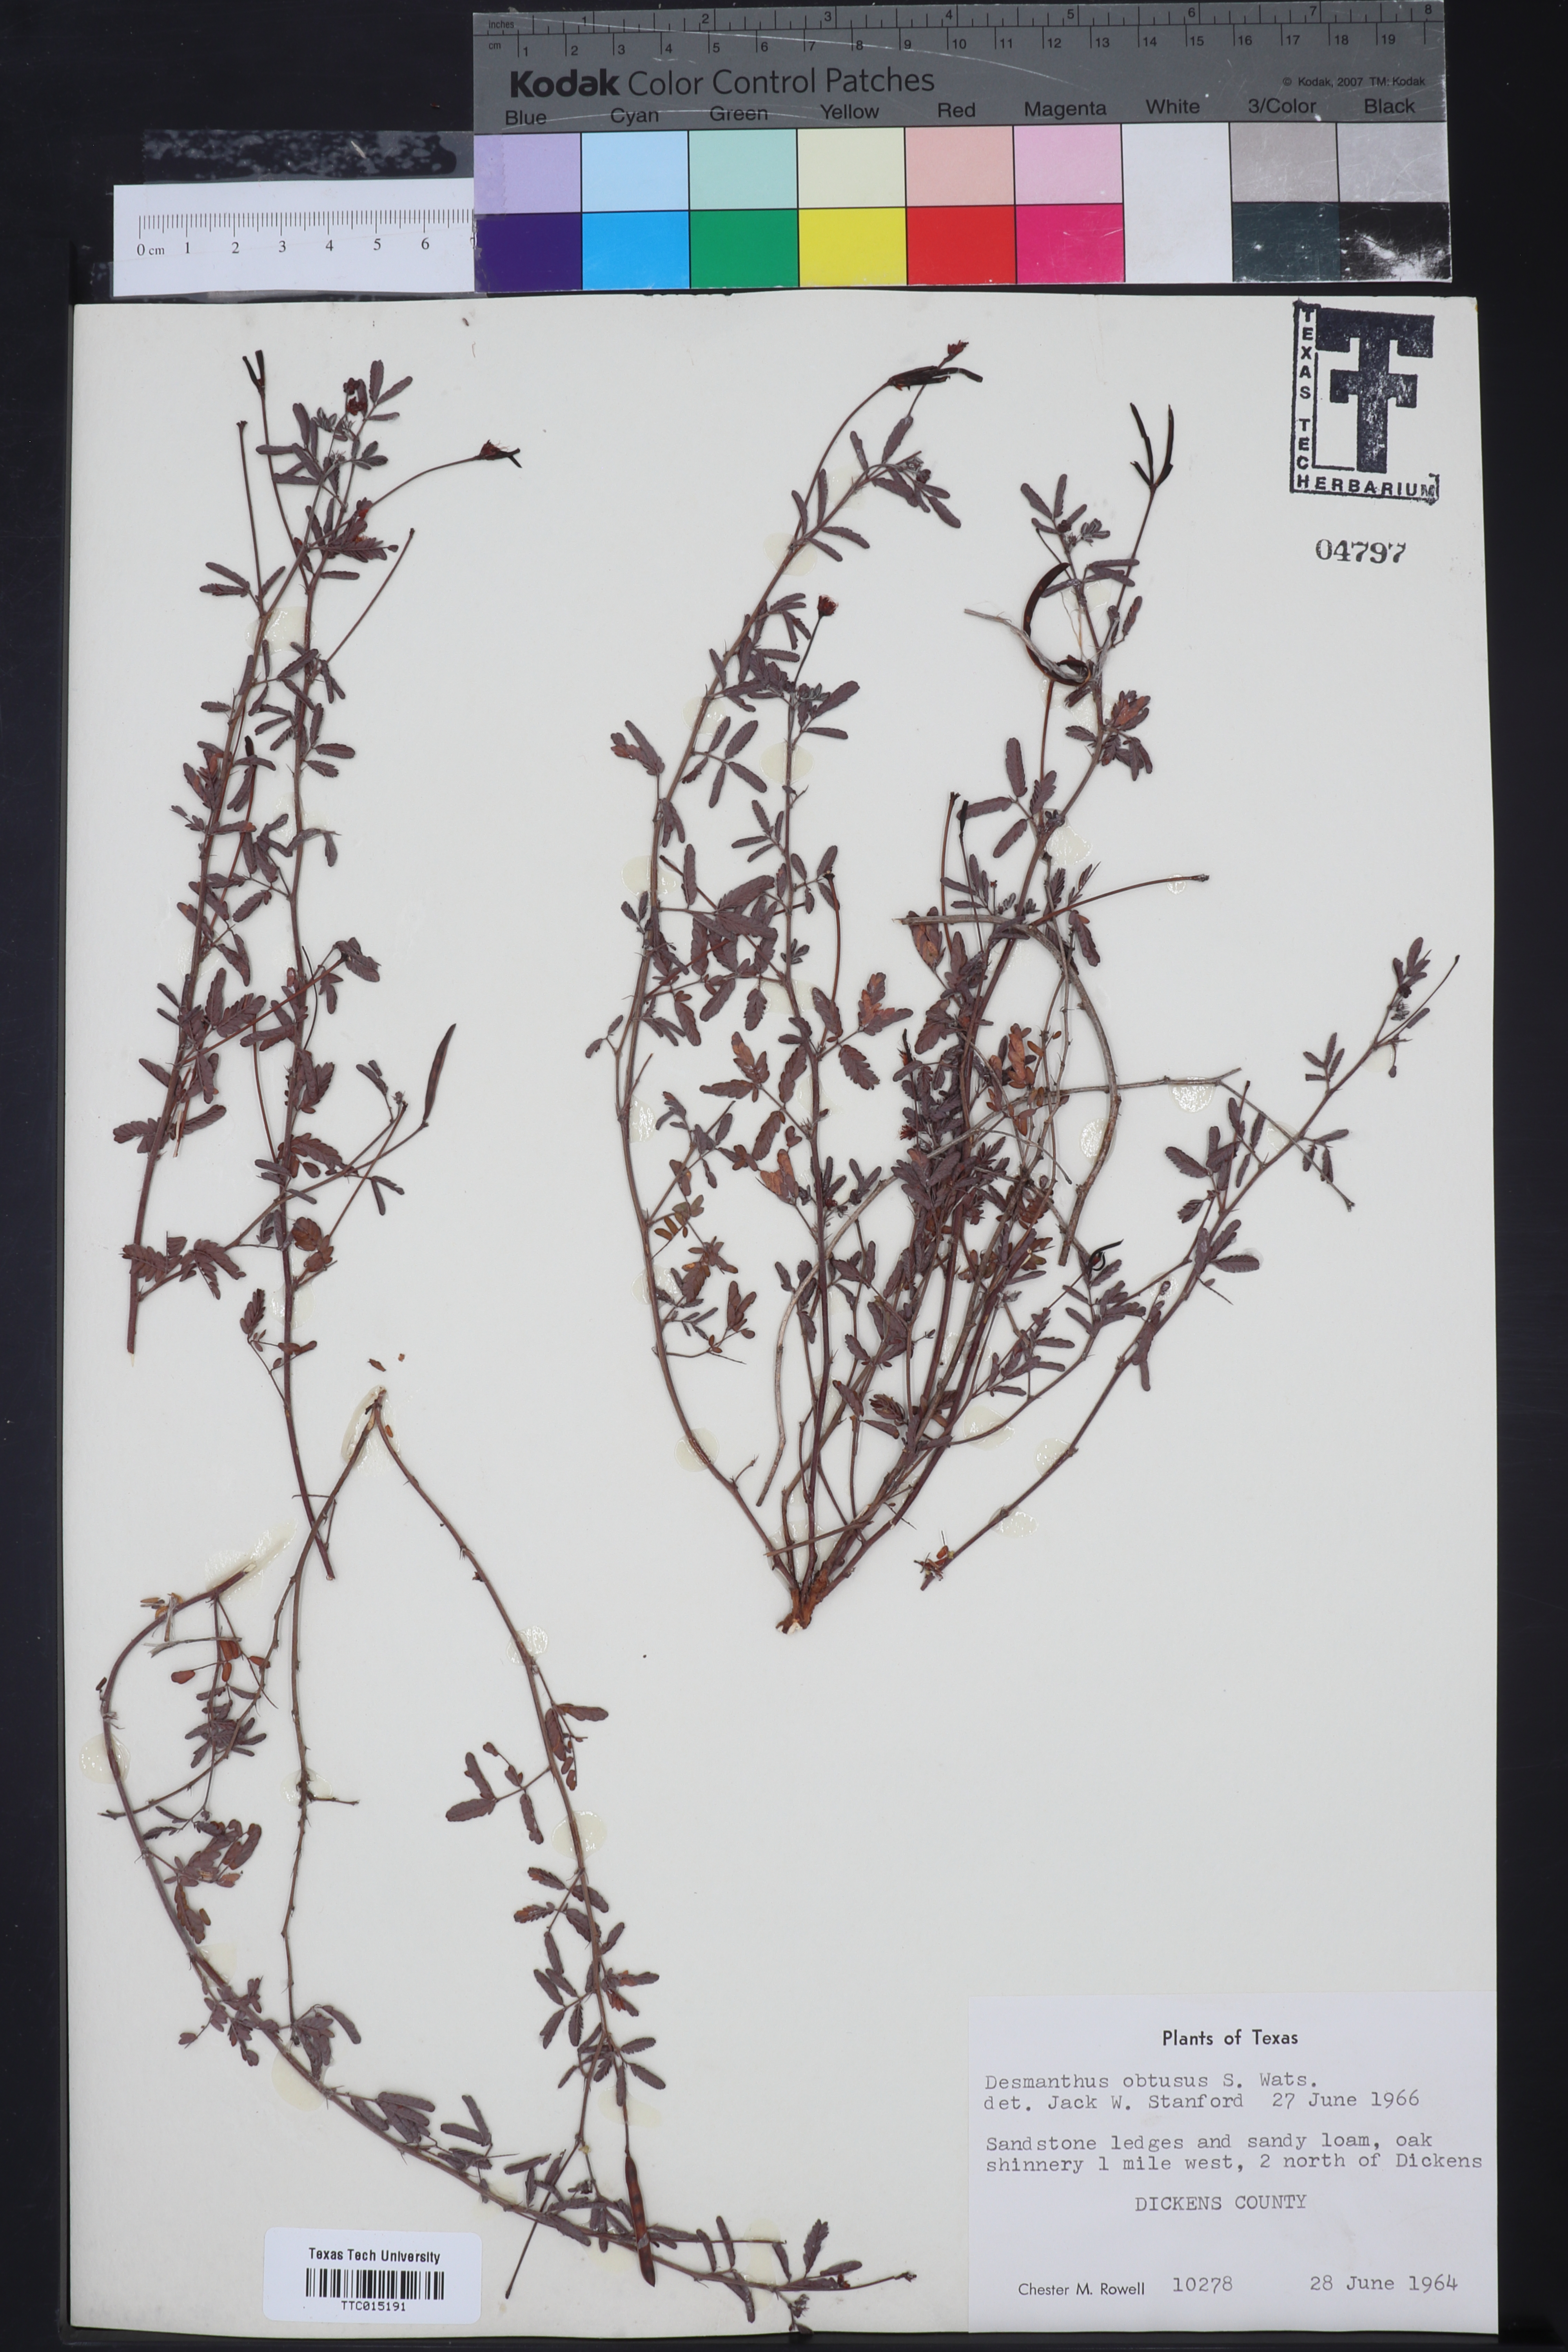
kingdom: Plantae
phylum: Tracheophyta
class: Magnoliopsida
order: Fabales
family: Fabaceae
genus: Desmanthus
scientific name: Desmanthus obtusus
